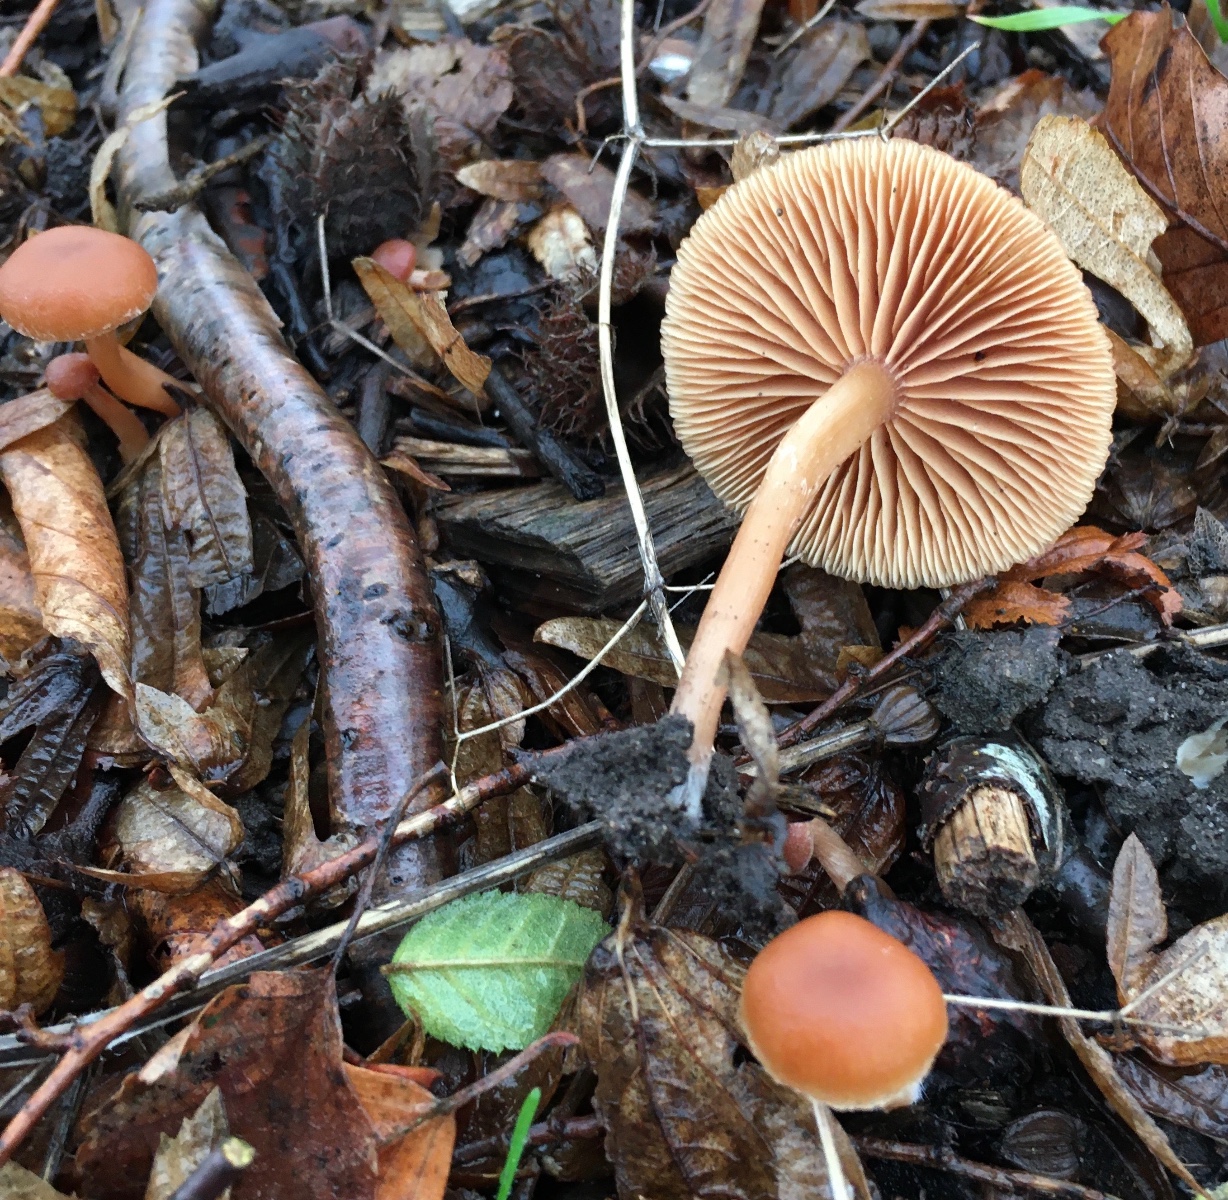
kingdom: Fungi
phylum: Basidiomycota
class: Agaricomycetes
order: Agaricales
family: Tubariaceae
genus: Tubaria
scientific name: Tubaria furfuracea
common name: kliddet fnughat
